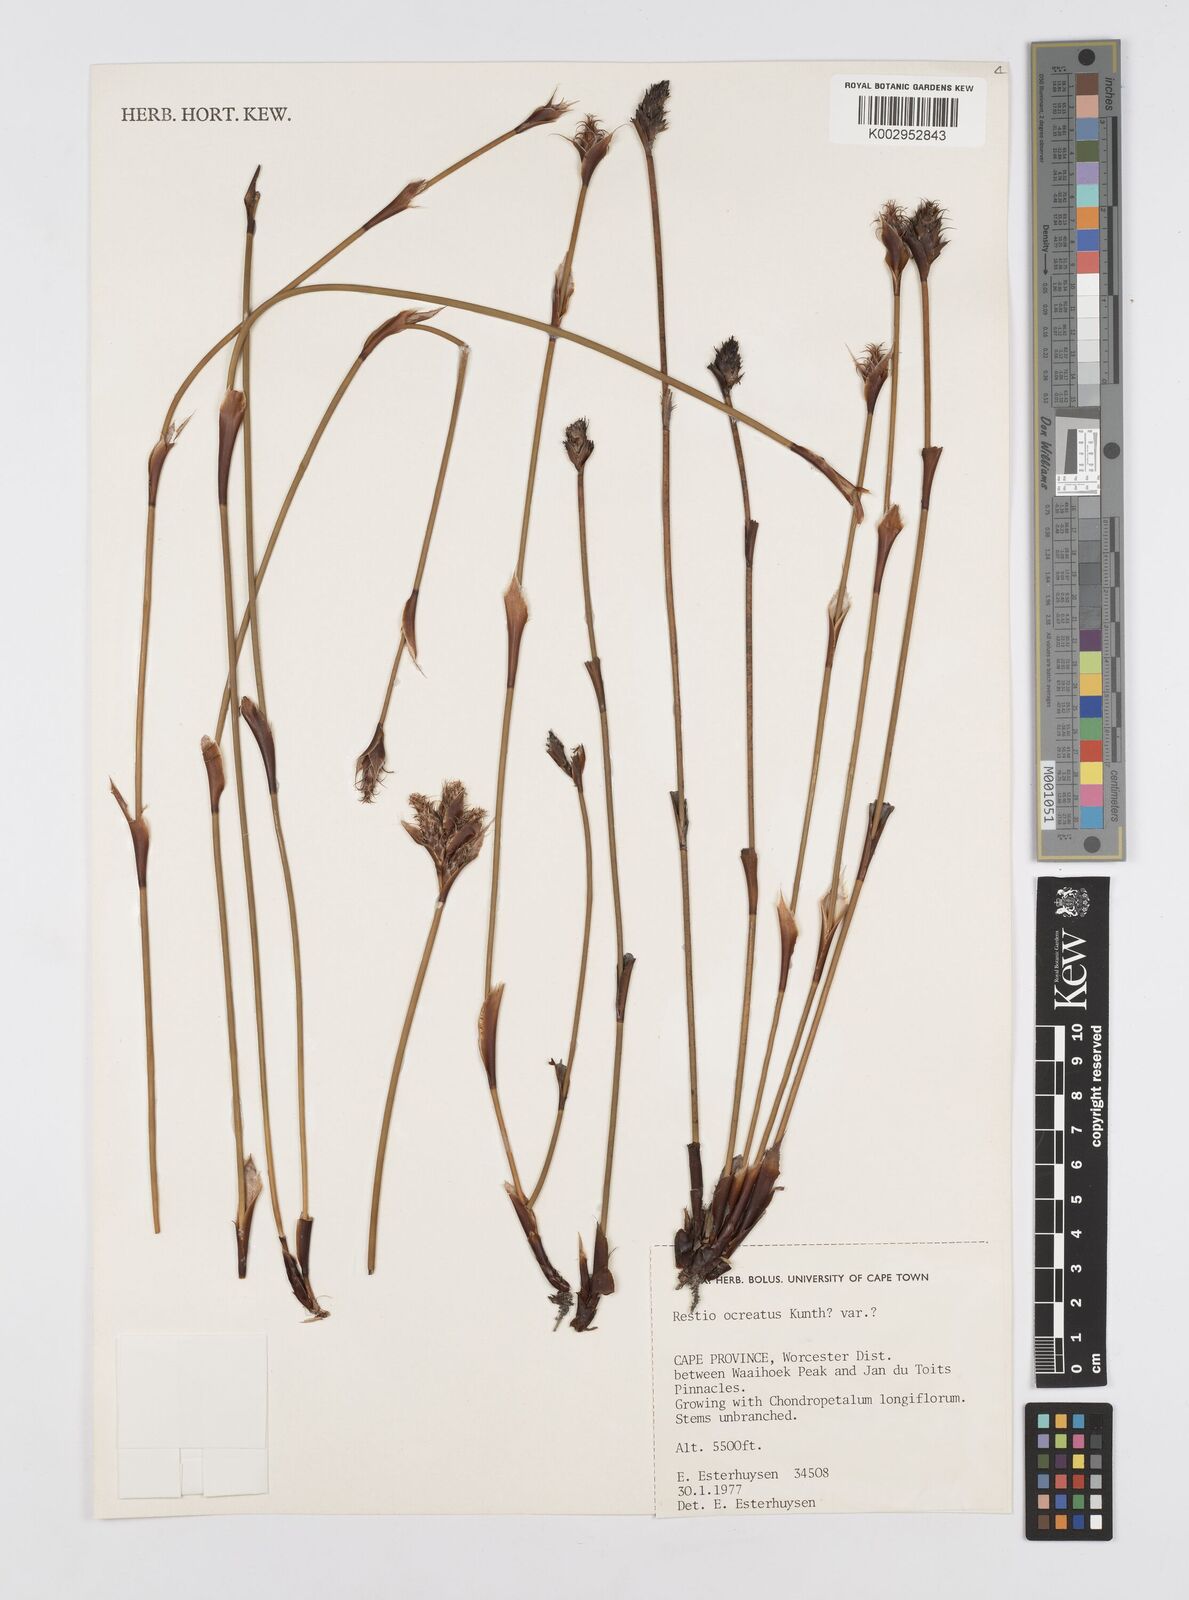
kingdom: Plantae
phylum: Tracheophyta
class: Liliopsida
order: Poales
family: Restionaceae
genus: Restio
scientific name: Restio ocreatus
